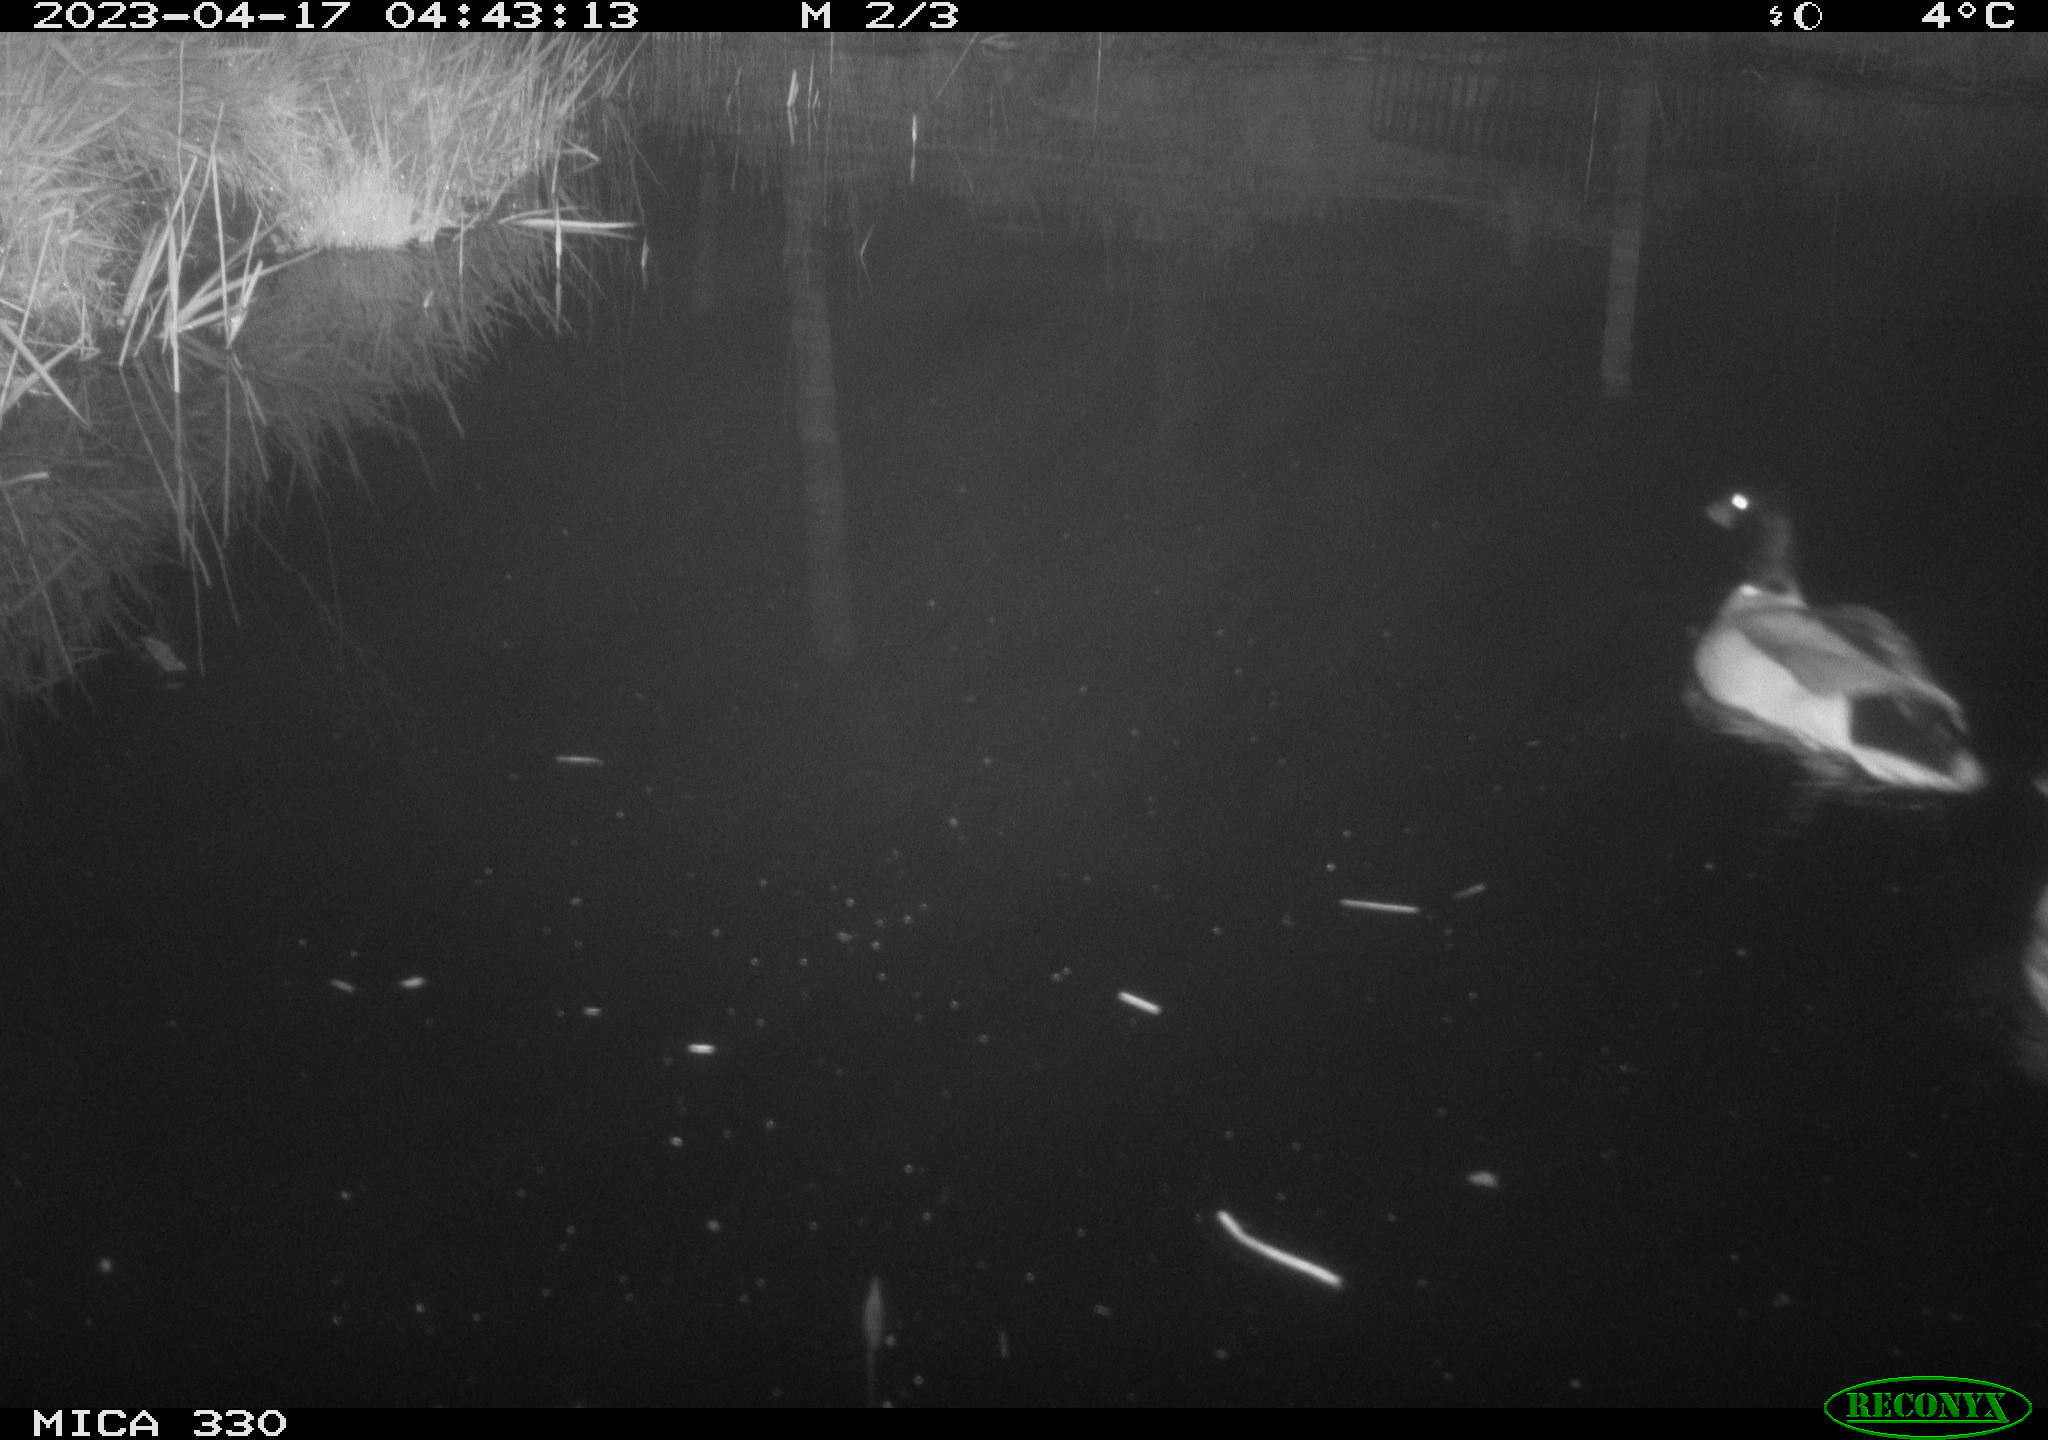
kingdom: Animalia
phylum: Chordata
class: Aves
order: Anseriformes
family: Anatidae
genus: Anas
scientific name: Anas
